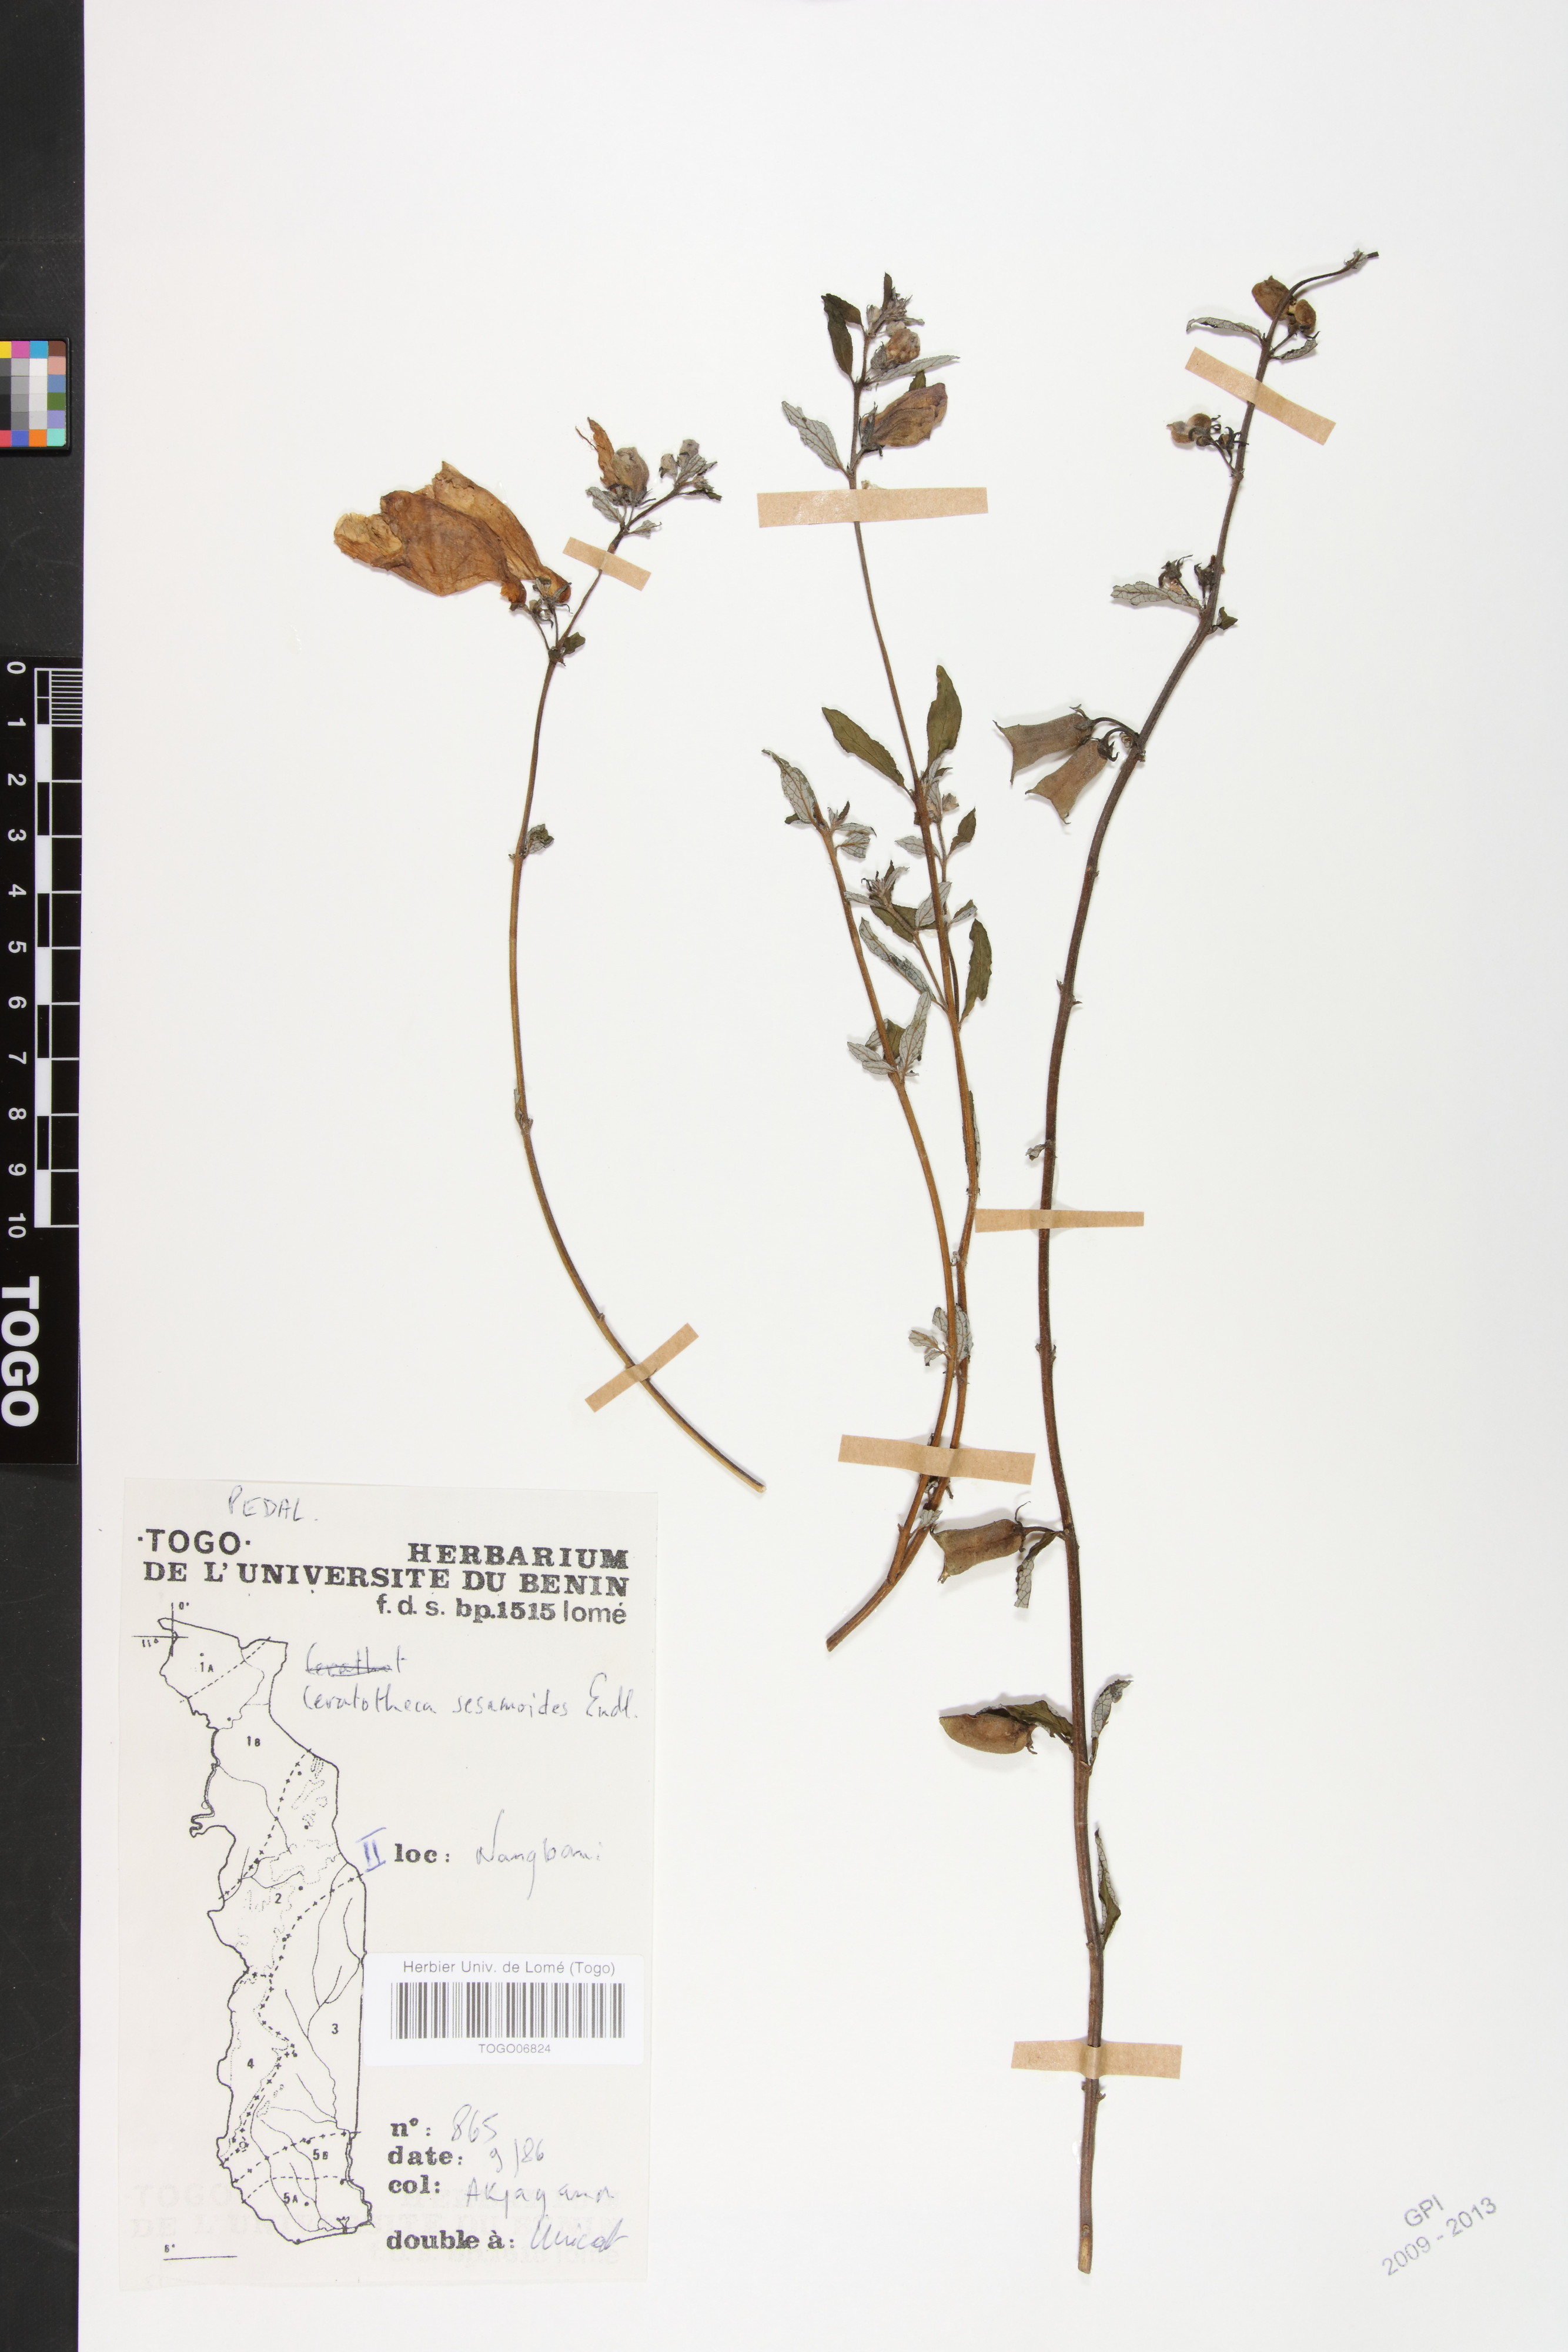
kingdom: Plantae
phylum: Tracheophyta
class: Magnoliopsida
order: Lamiales
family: Pedaliaceae
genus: Sesamum
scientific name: Sesamum sesamoides
